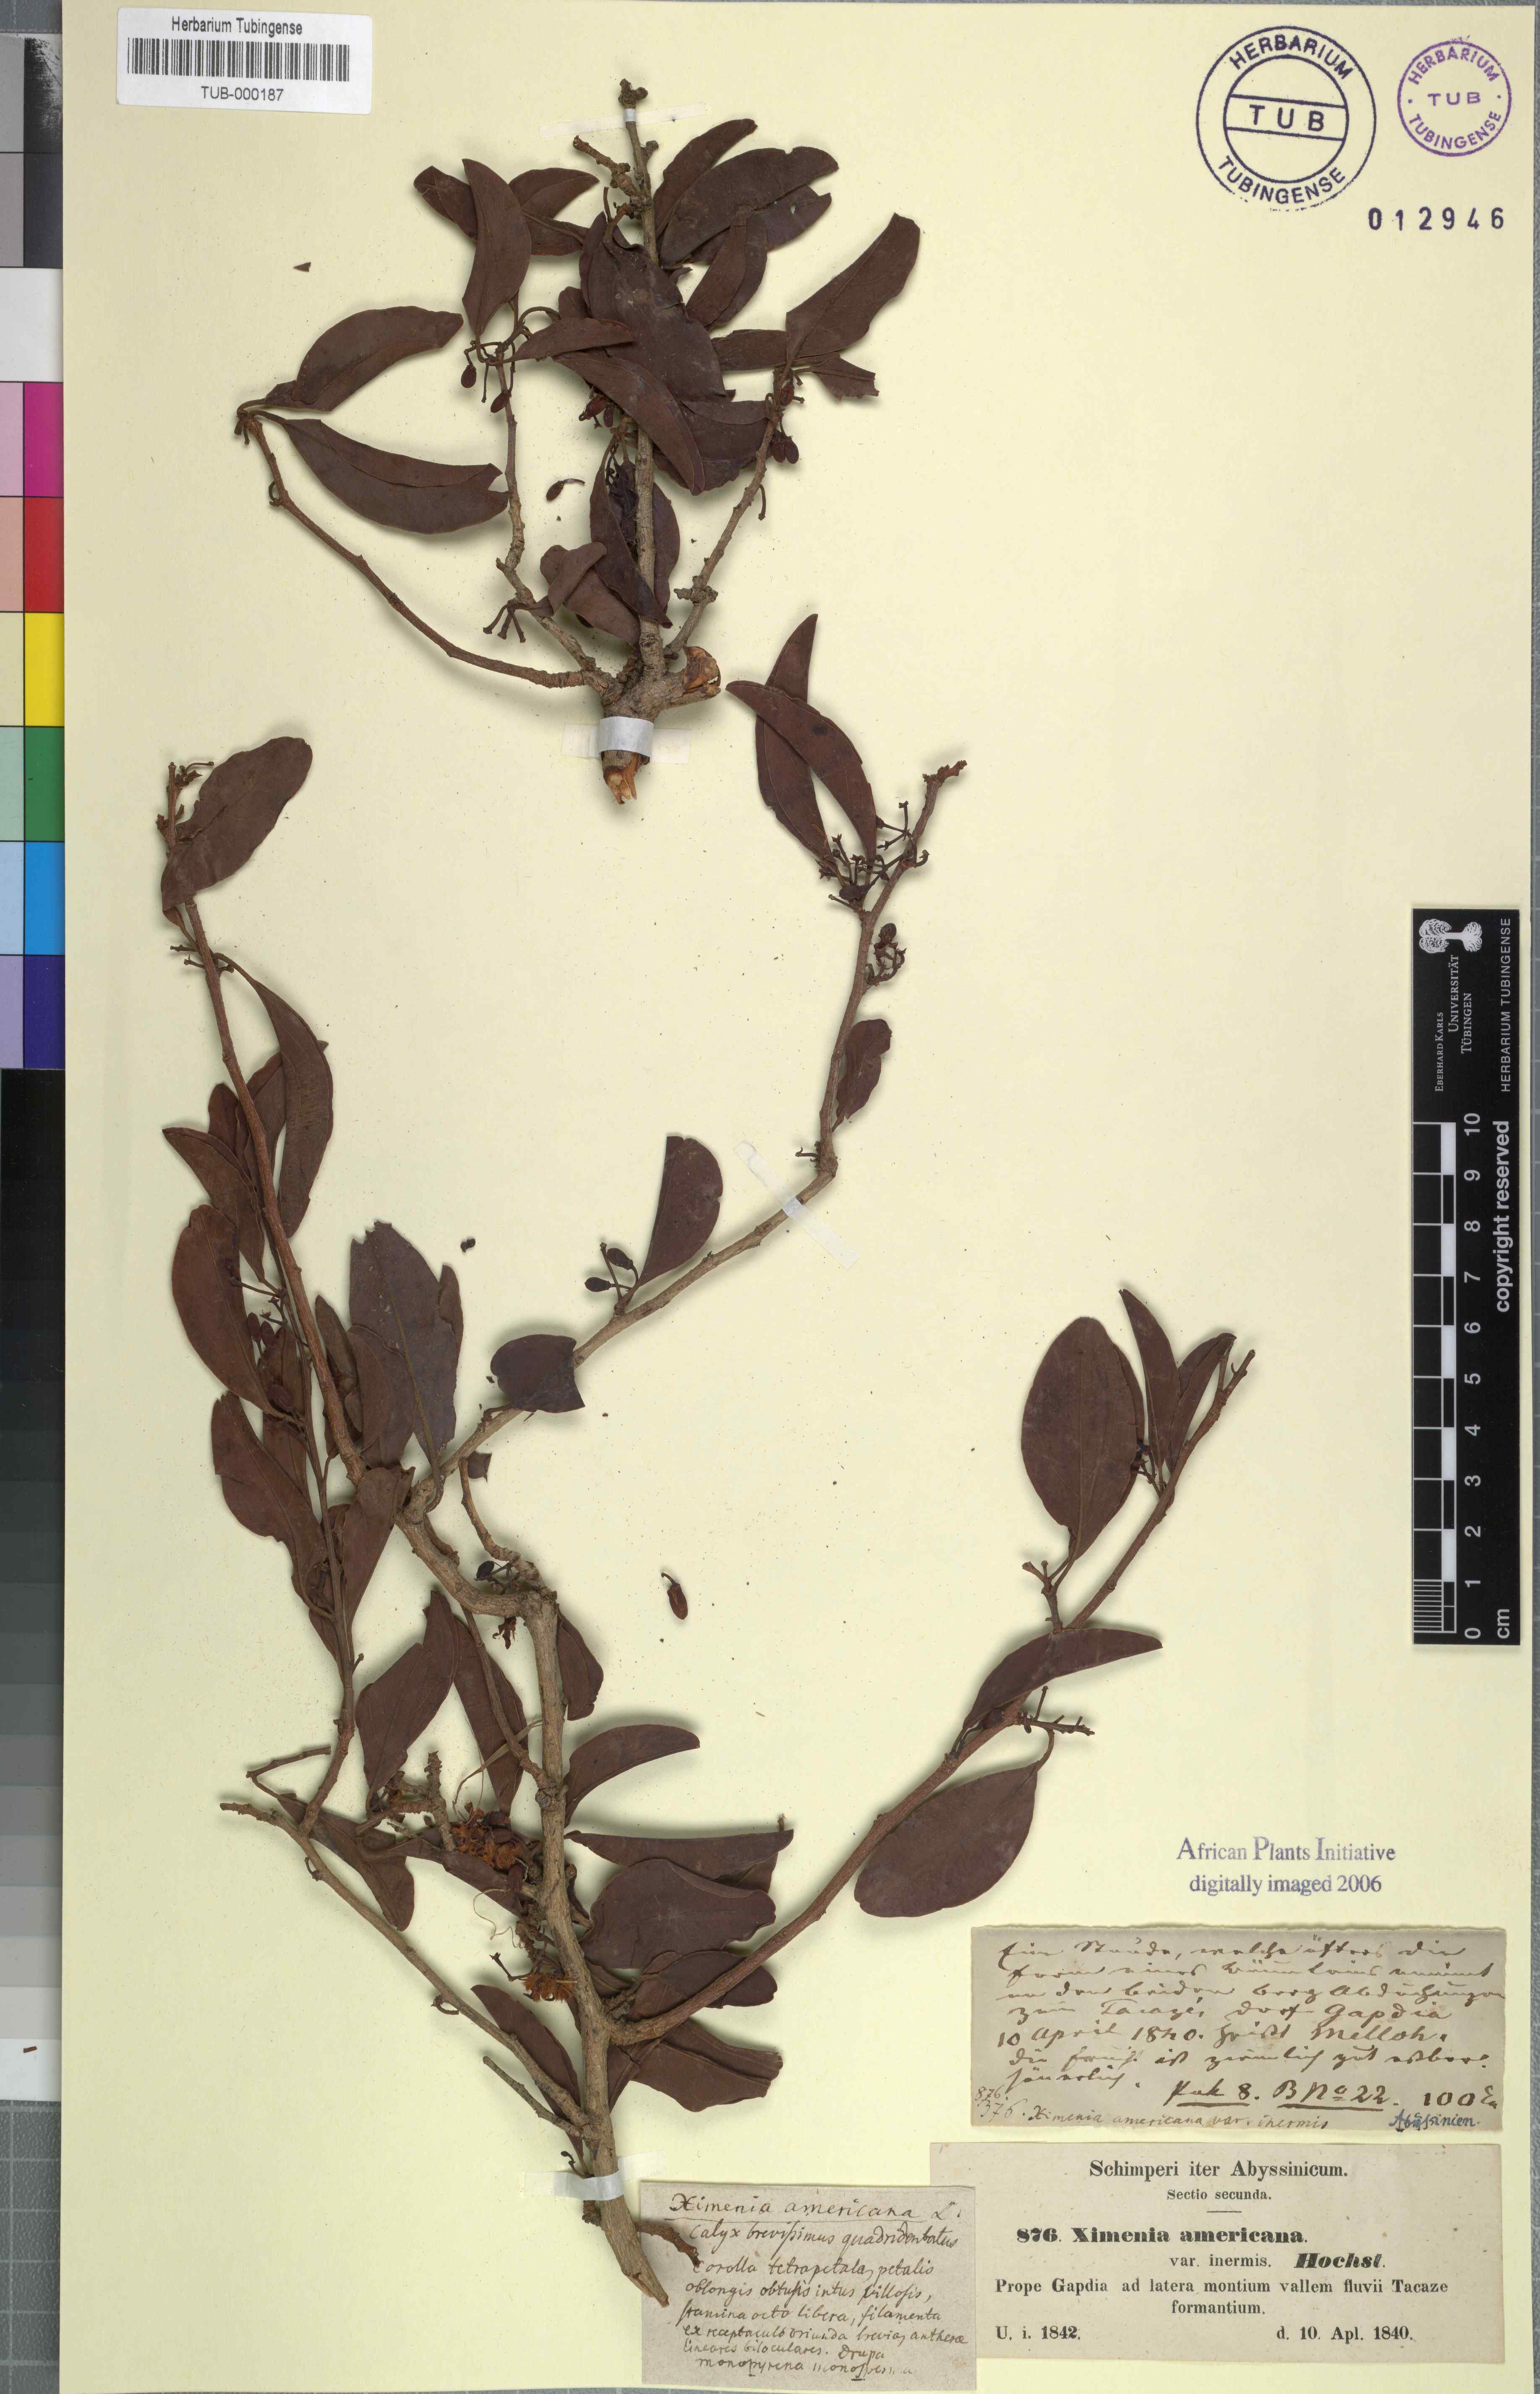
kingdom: Plantae
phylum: Tracheophyta
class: Magnoliopsida
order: Santalales
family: Ximeniaceae
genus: Ximenia
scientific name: Ximenia americana
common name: Tallowwood
